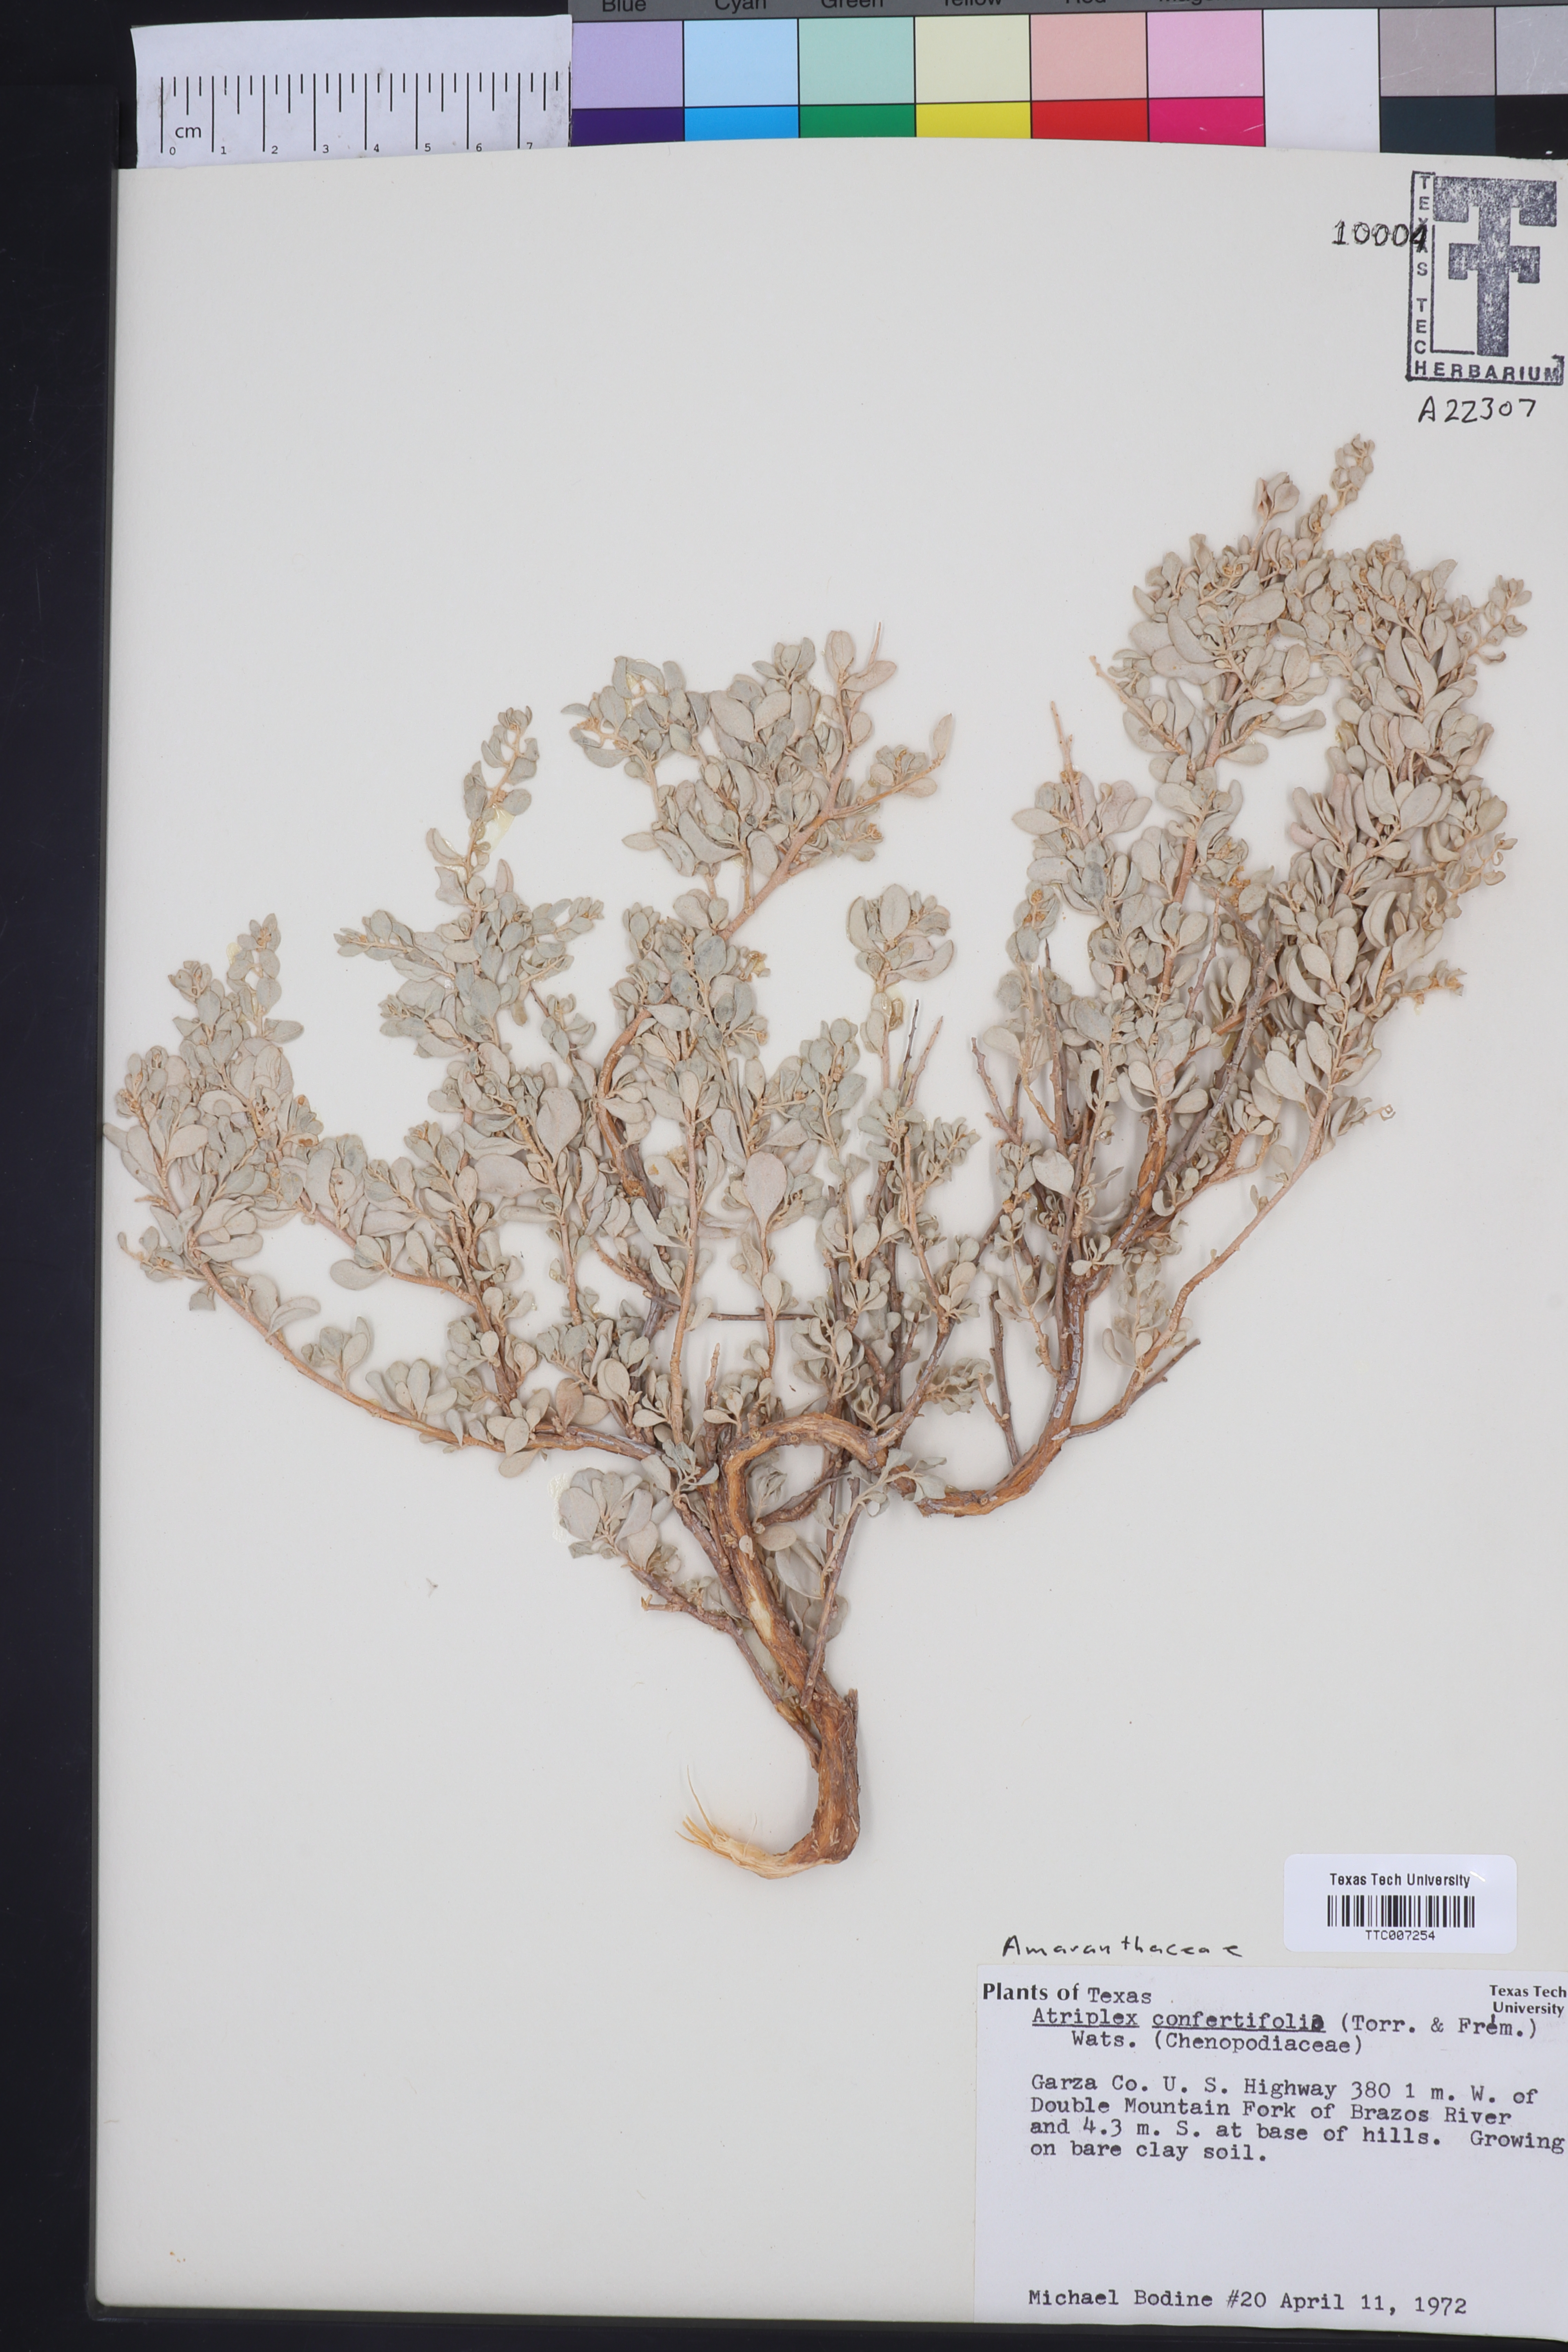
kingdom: Plantae
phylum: Tracheophyta
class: Magnoliopsida
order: Caryophyllales
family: Amaranthaceae
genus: Atriplex
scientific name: Atriplex confertifolia
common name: Shadscale
